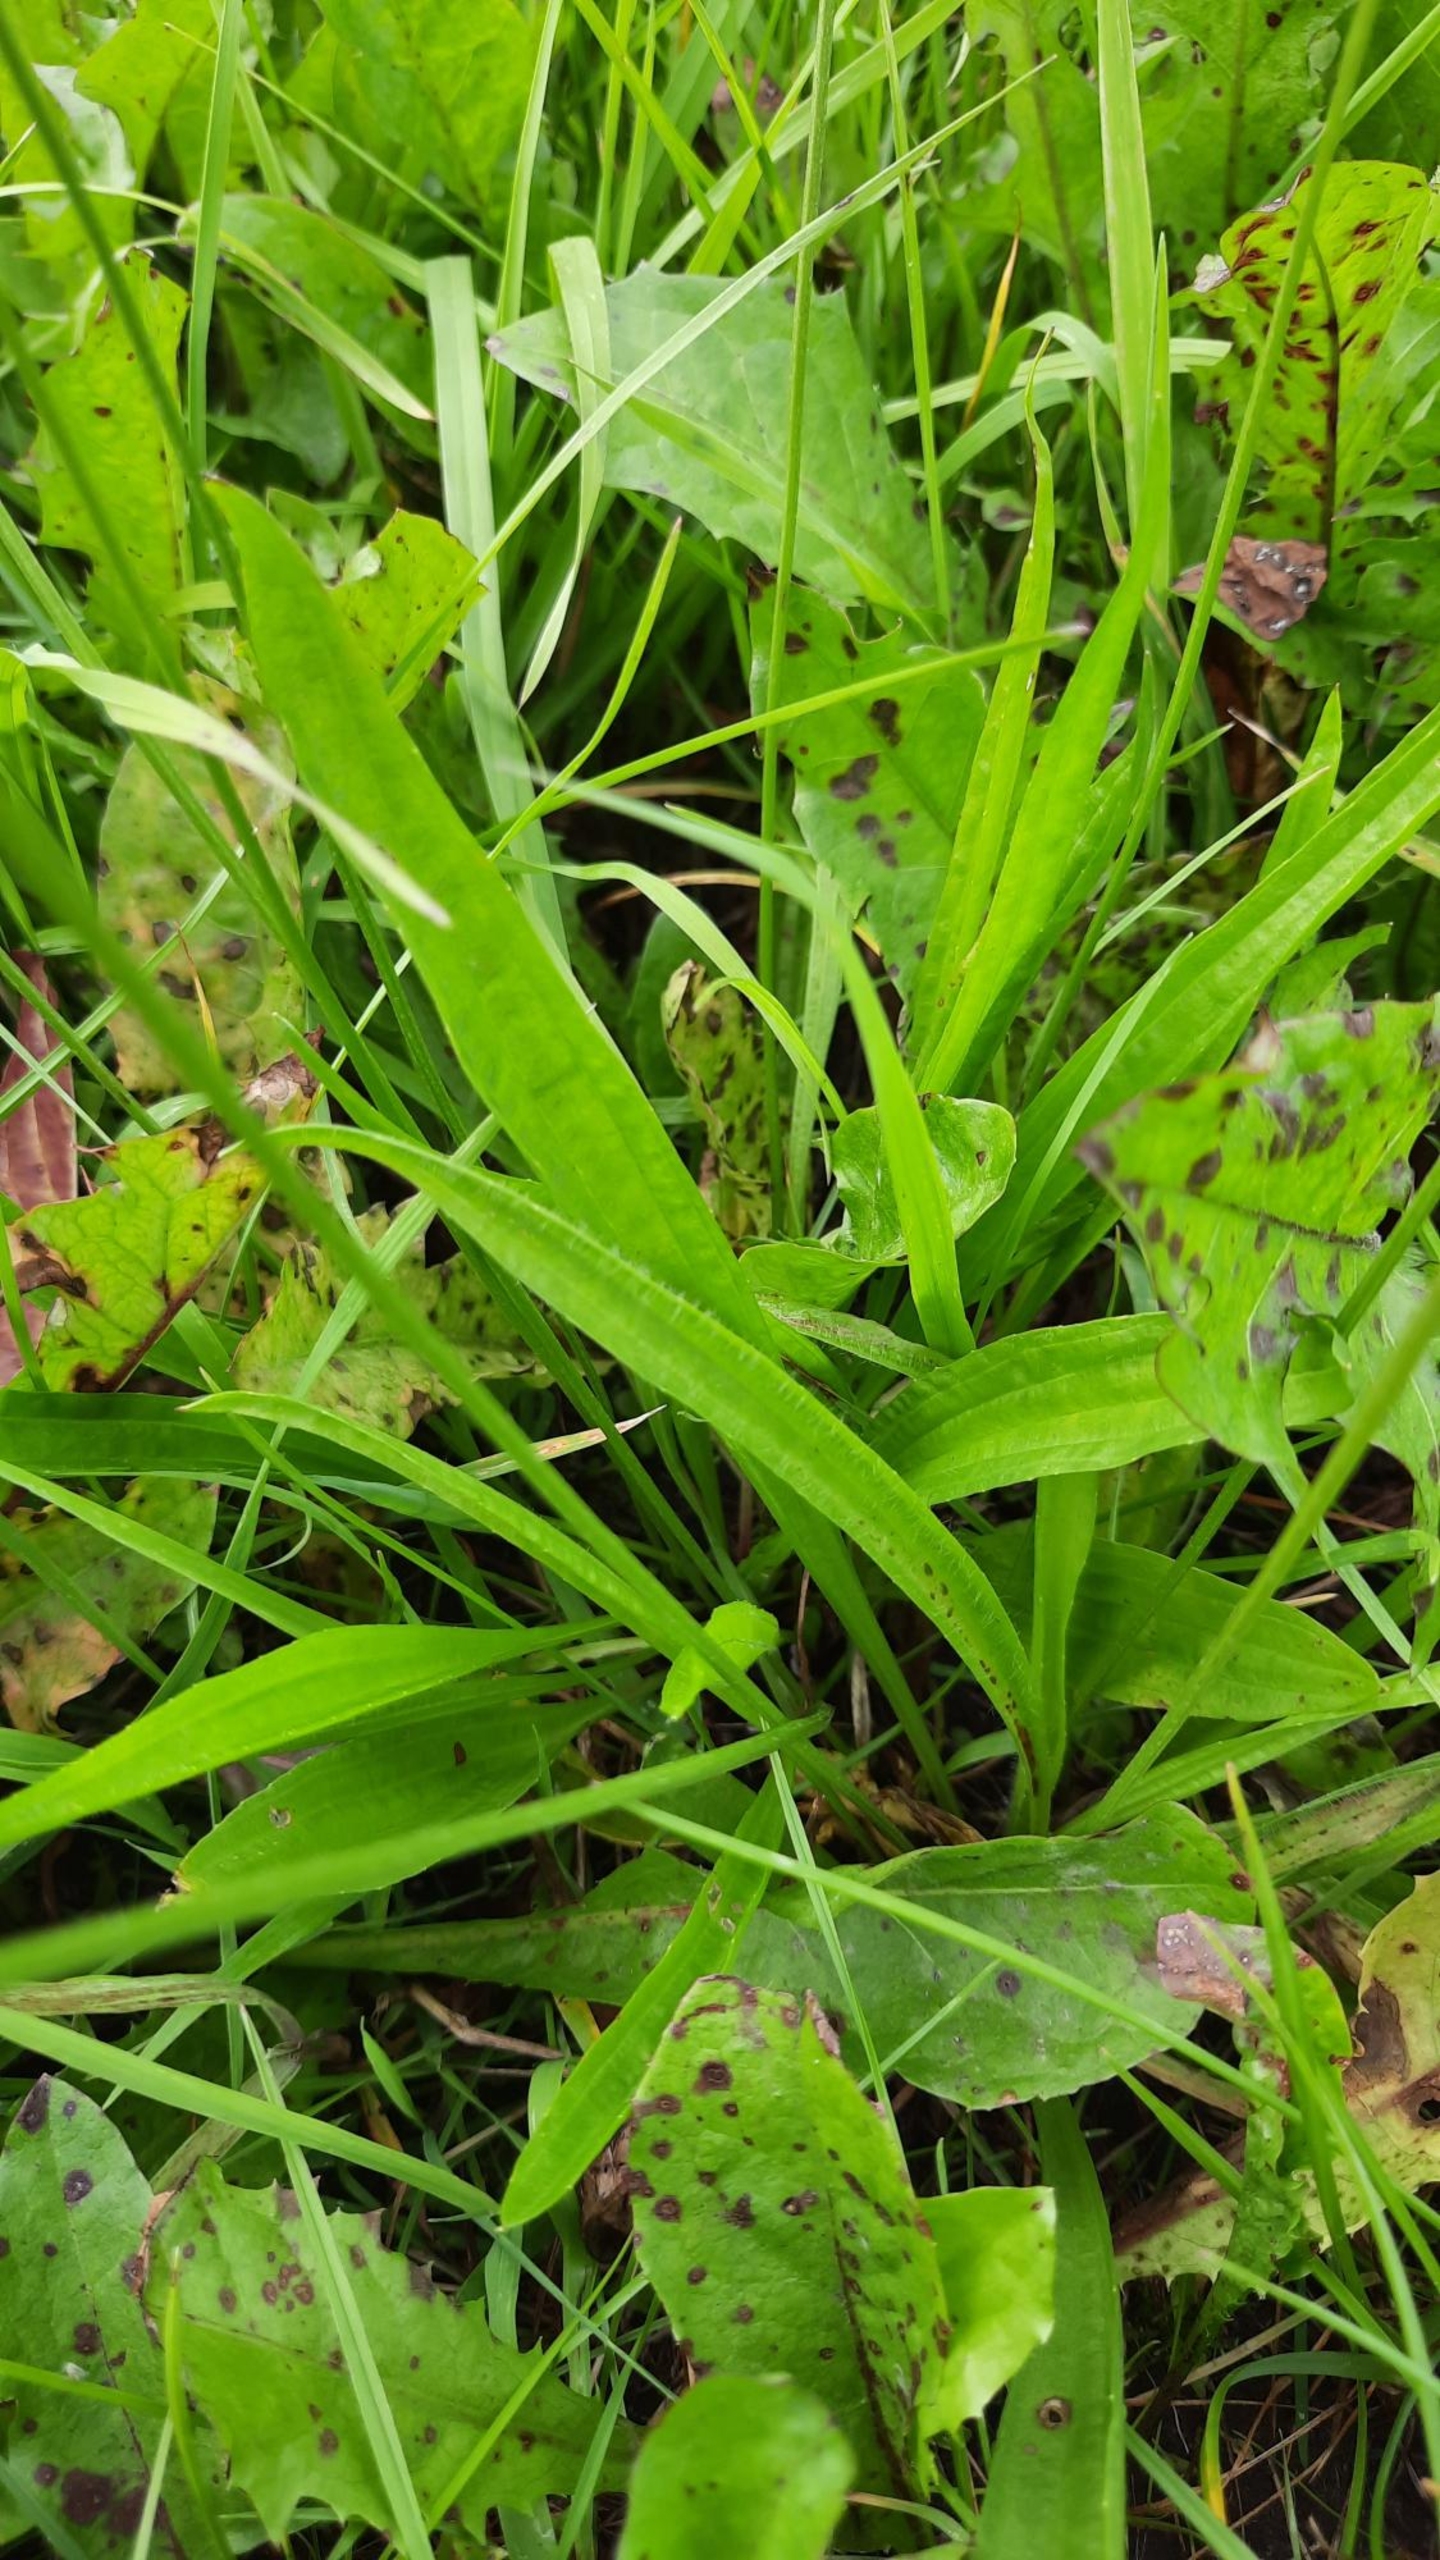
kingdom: Plantae
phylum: Tracheophyta
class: Magnoliopsida
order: Lamiales
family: Plantaginaceae
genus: Plantago
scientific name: Plantago lanceolata
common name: Lancet-vejbred
